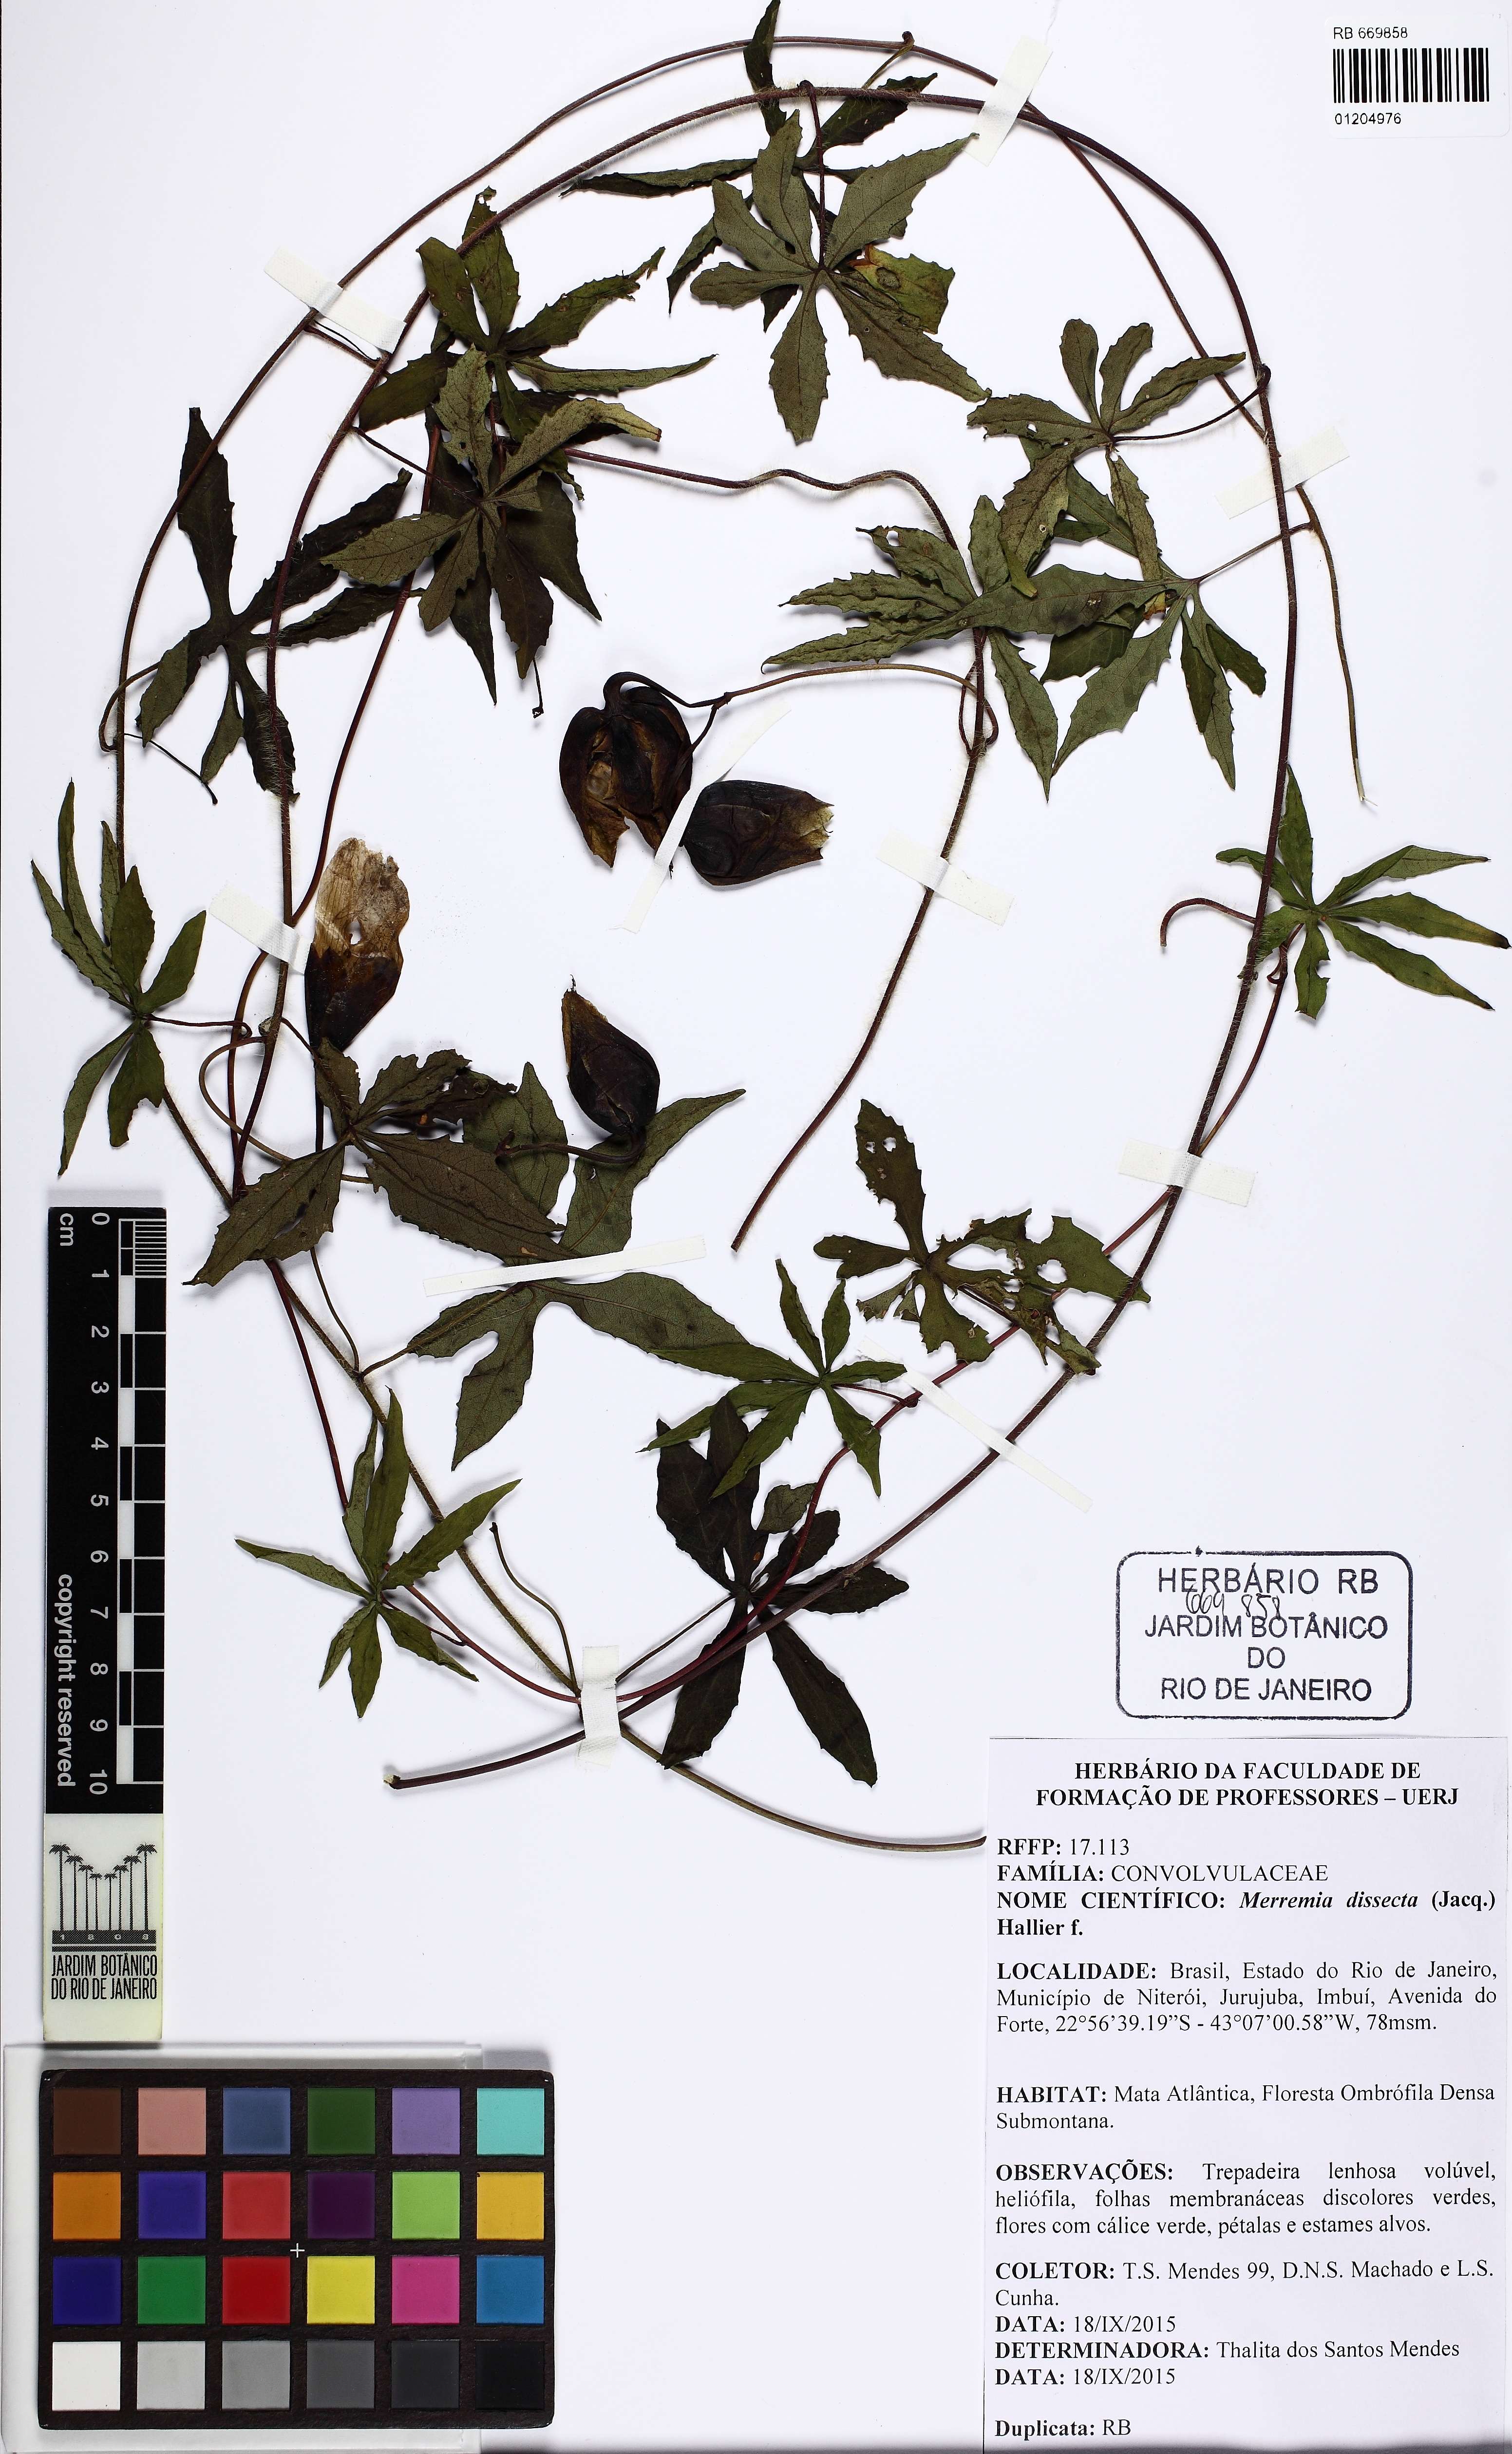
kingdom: Plantae
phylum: Tracheophyta
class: Magnoliopsida
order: Solanales
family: Convolvulaceae
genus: Distimake
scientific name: Distimake dissectus
